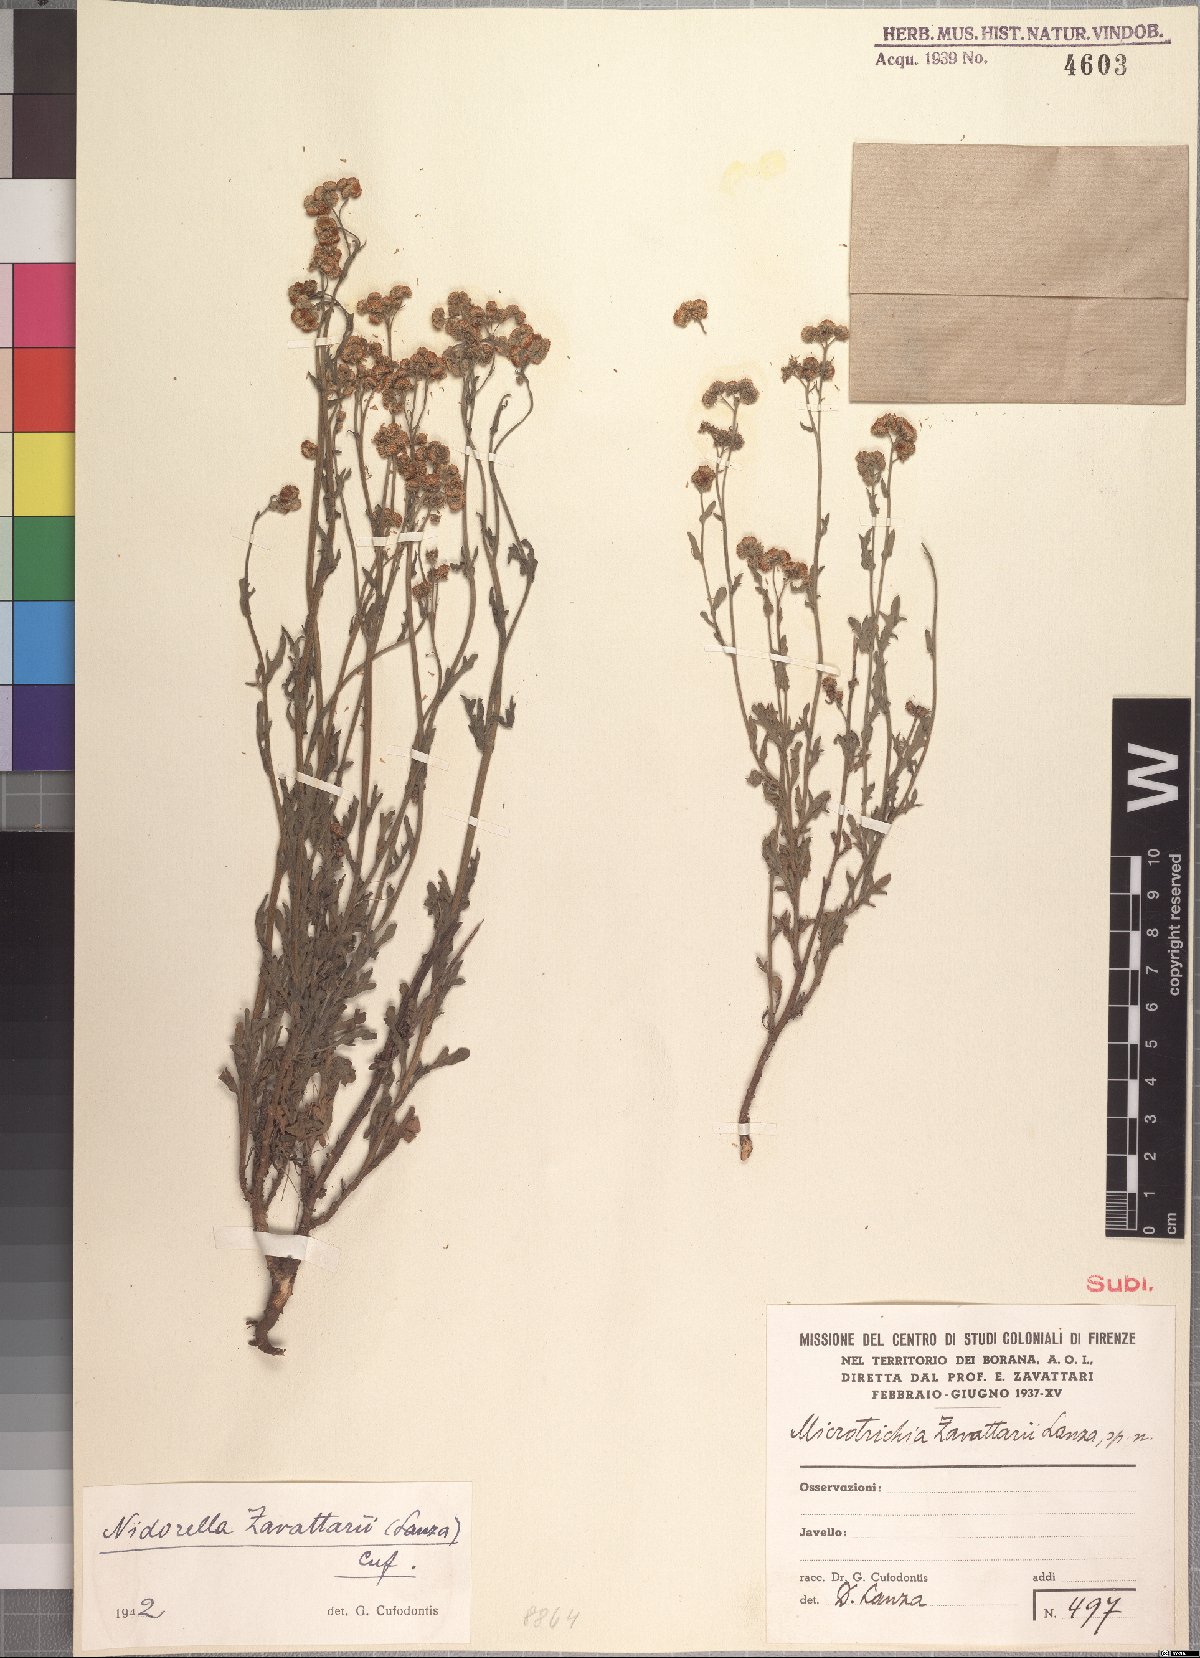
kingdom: Plantae
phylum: Tracheophyta
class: Magnoliopsida
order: Asterales
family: Asteraceae
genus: Nidorella
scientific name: Nidorella zavattarii
